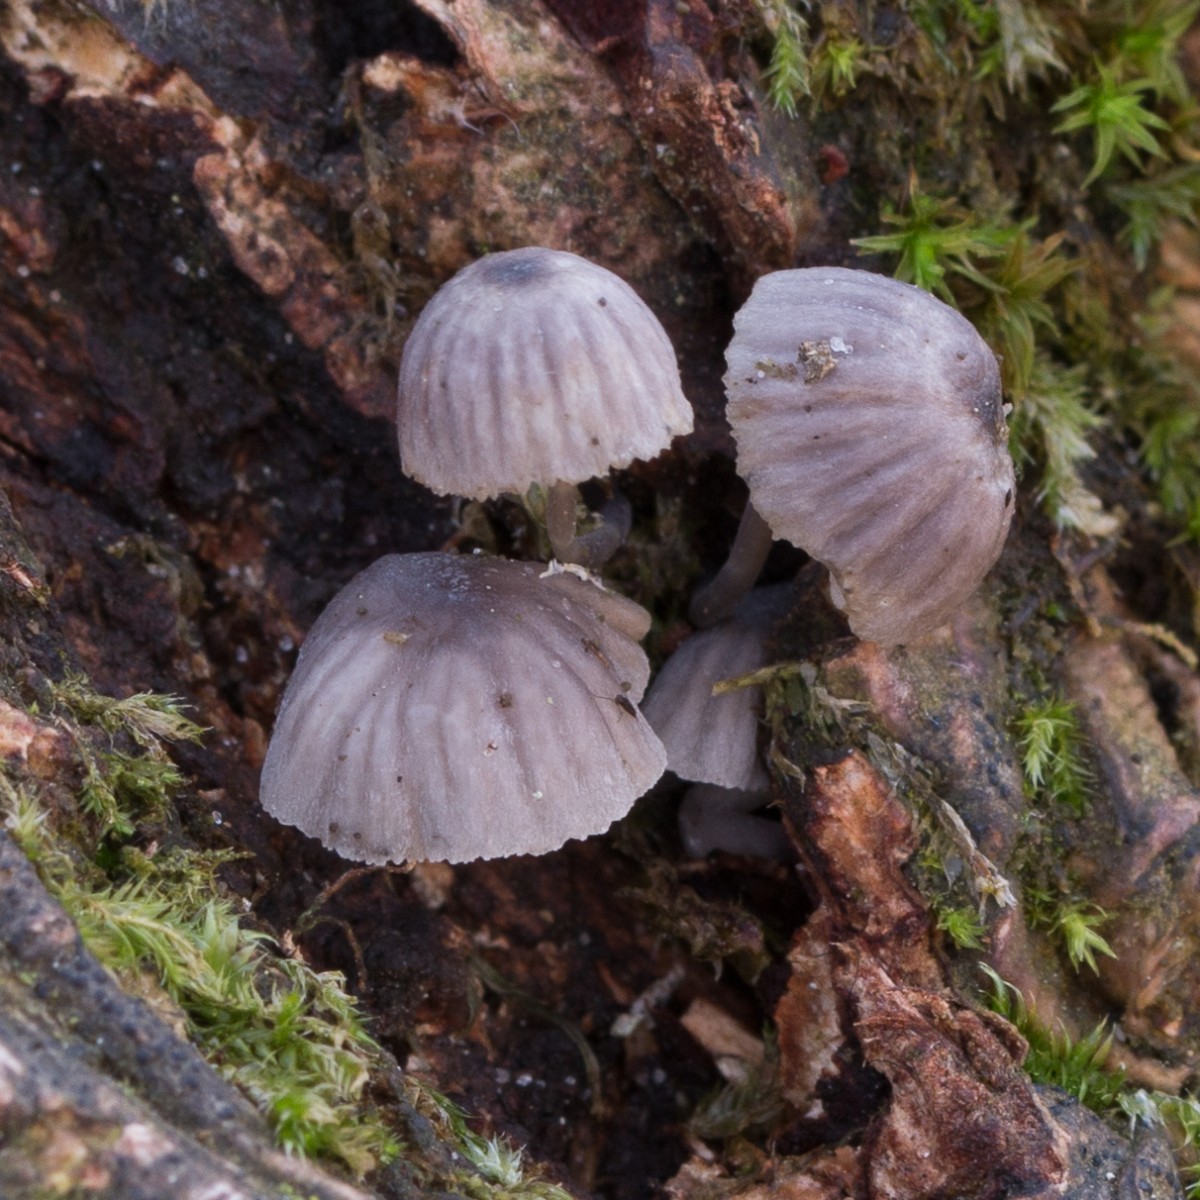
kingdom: Fungi
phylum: Basidiomycota
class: Agaricomycetes
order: Agaricales
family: Mycenaceae
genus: Mycena
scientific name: Mycena pseudocorticola
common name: gråblå bark-huesvamp
